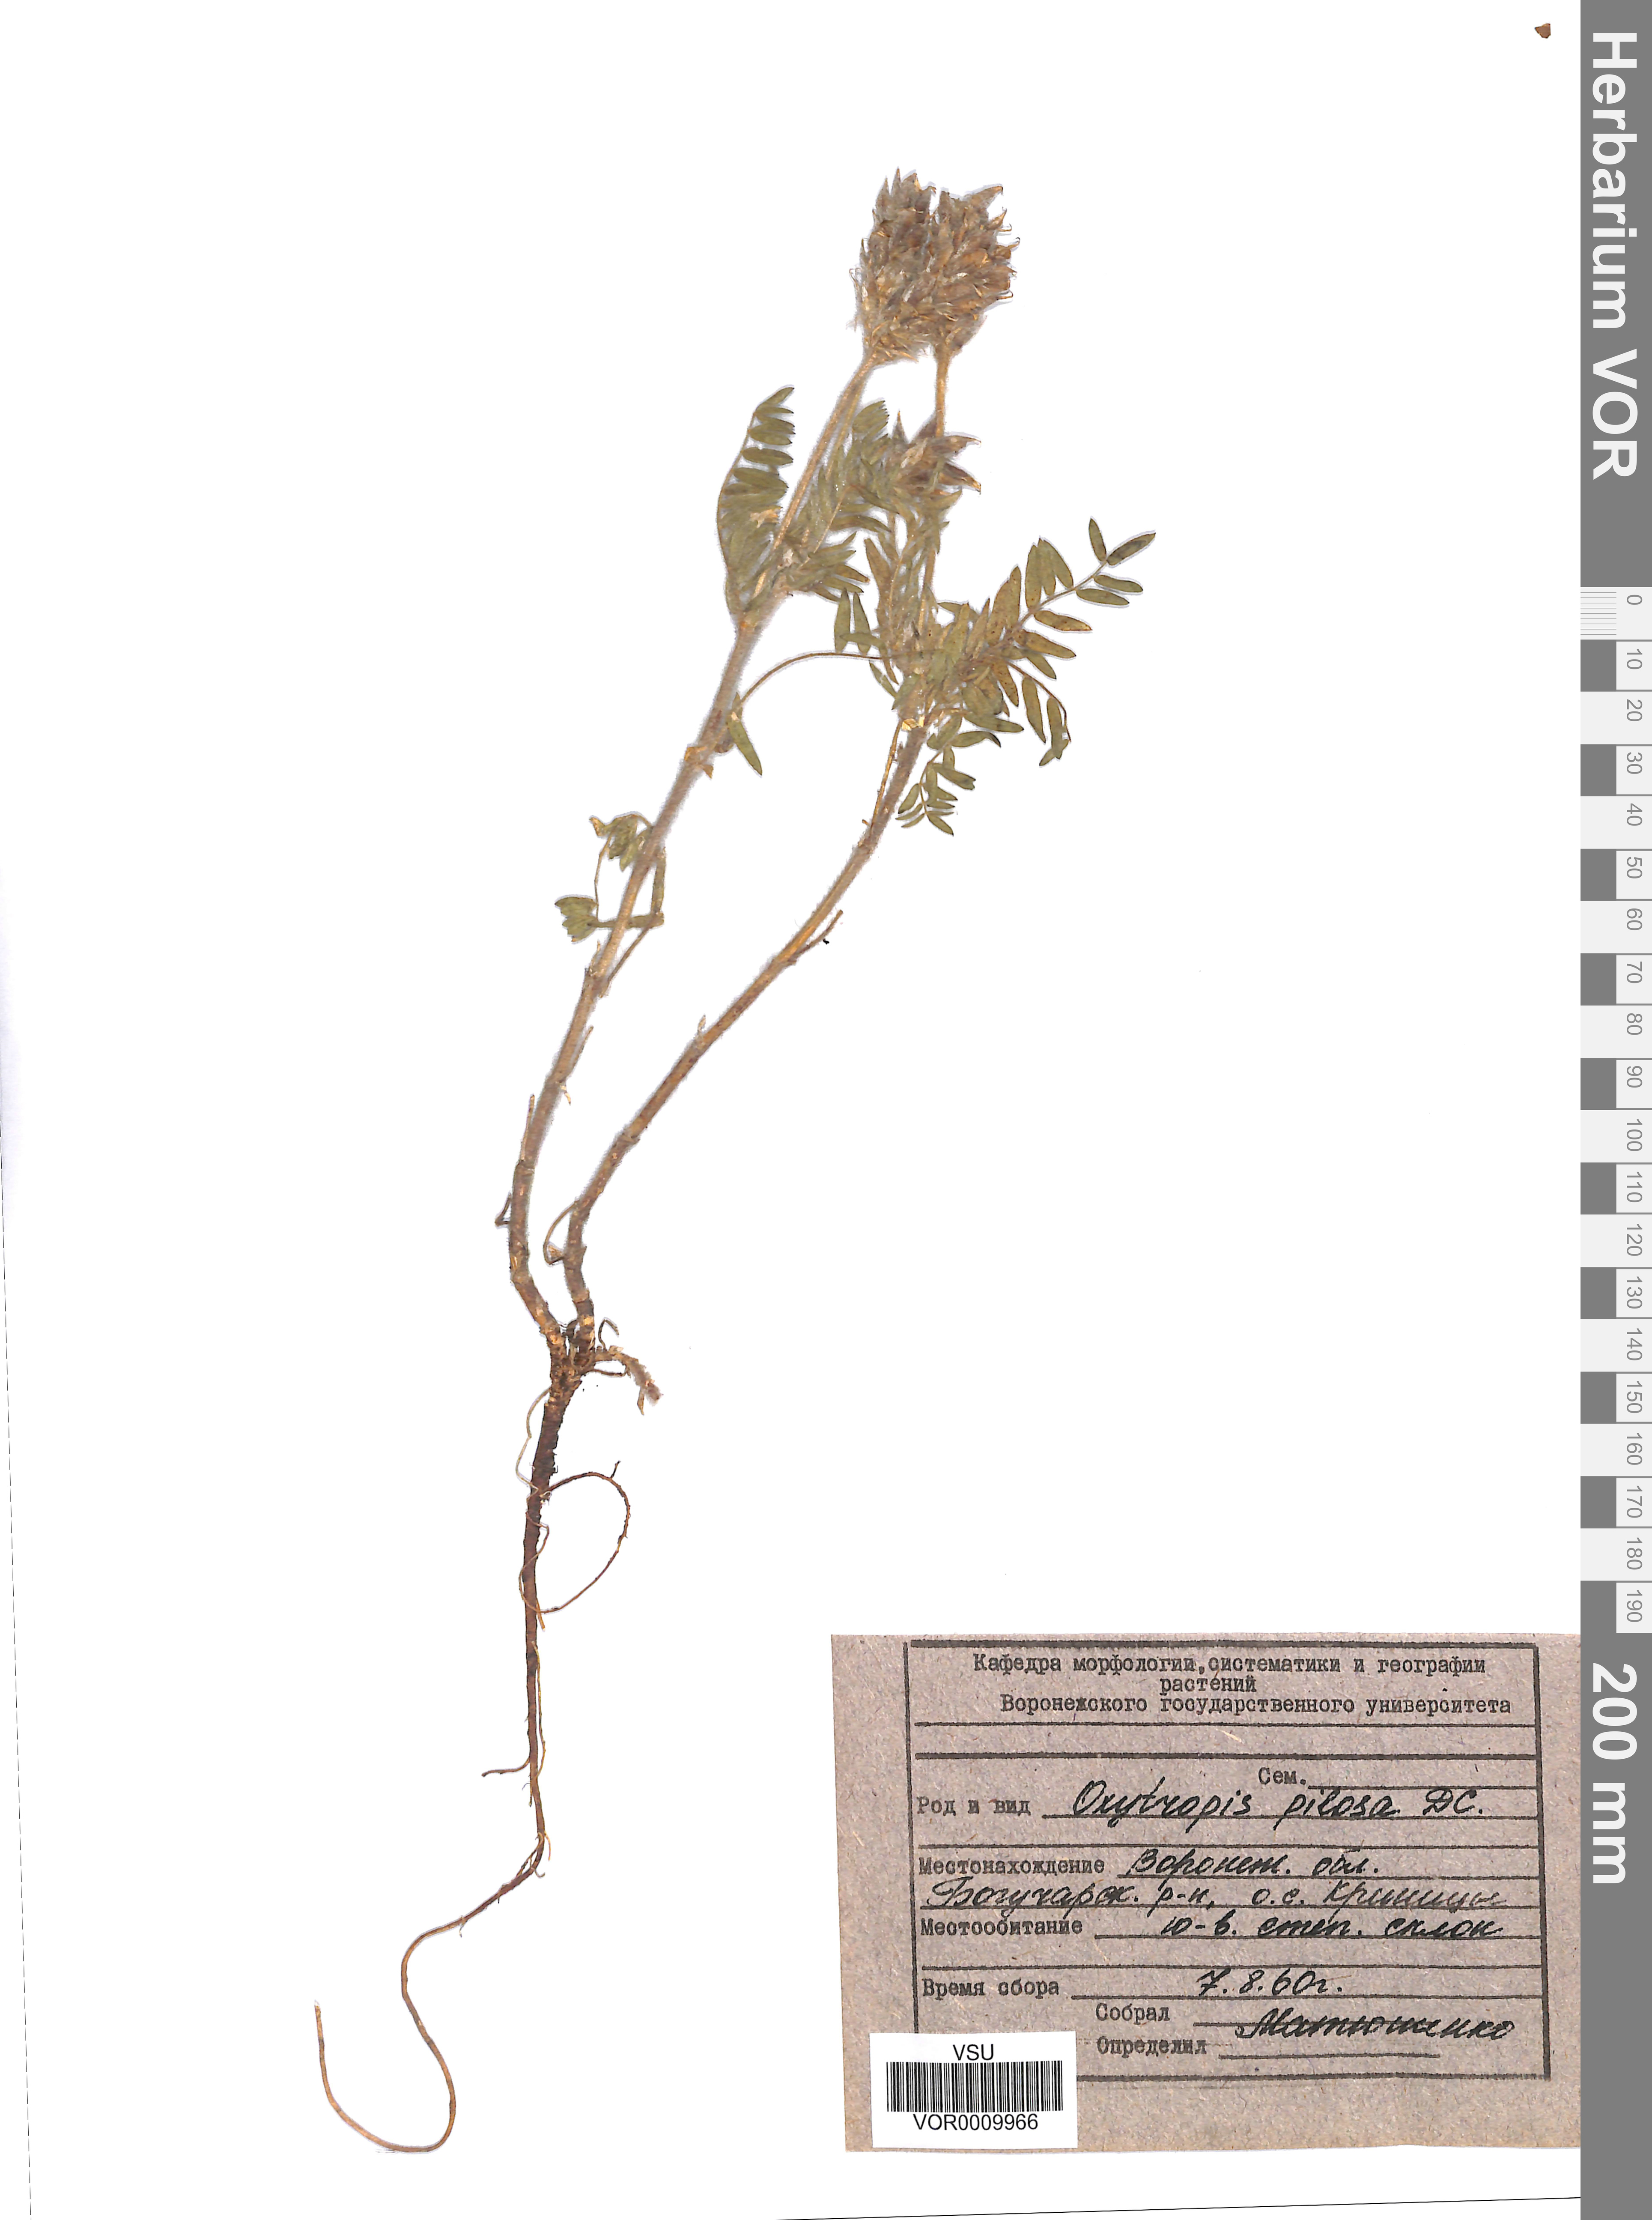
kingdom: Plantae
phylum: Tracheophyta
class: Magnoliopsida
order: Fabales
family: Fabaceae
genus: Oxytropis
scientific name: Oxytropis pilosa
